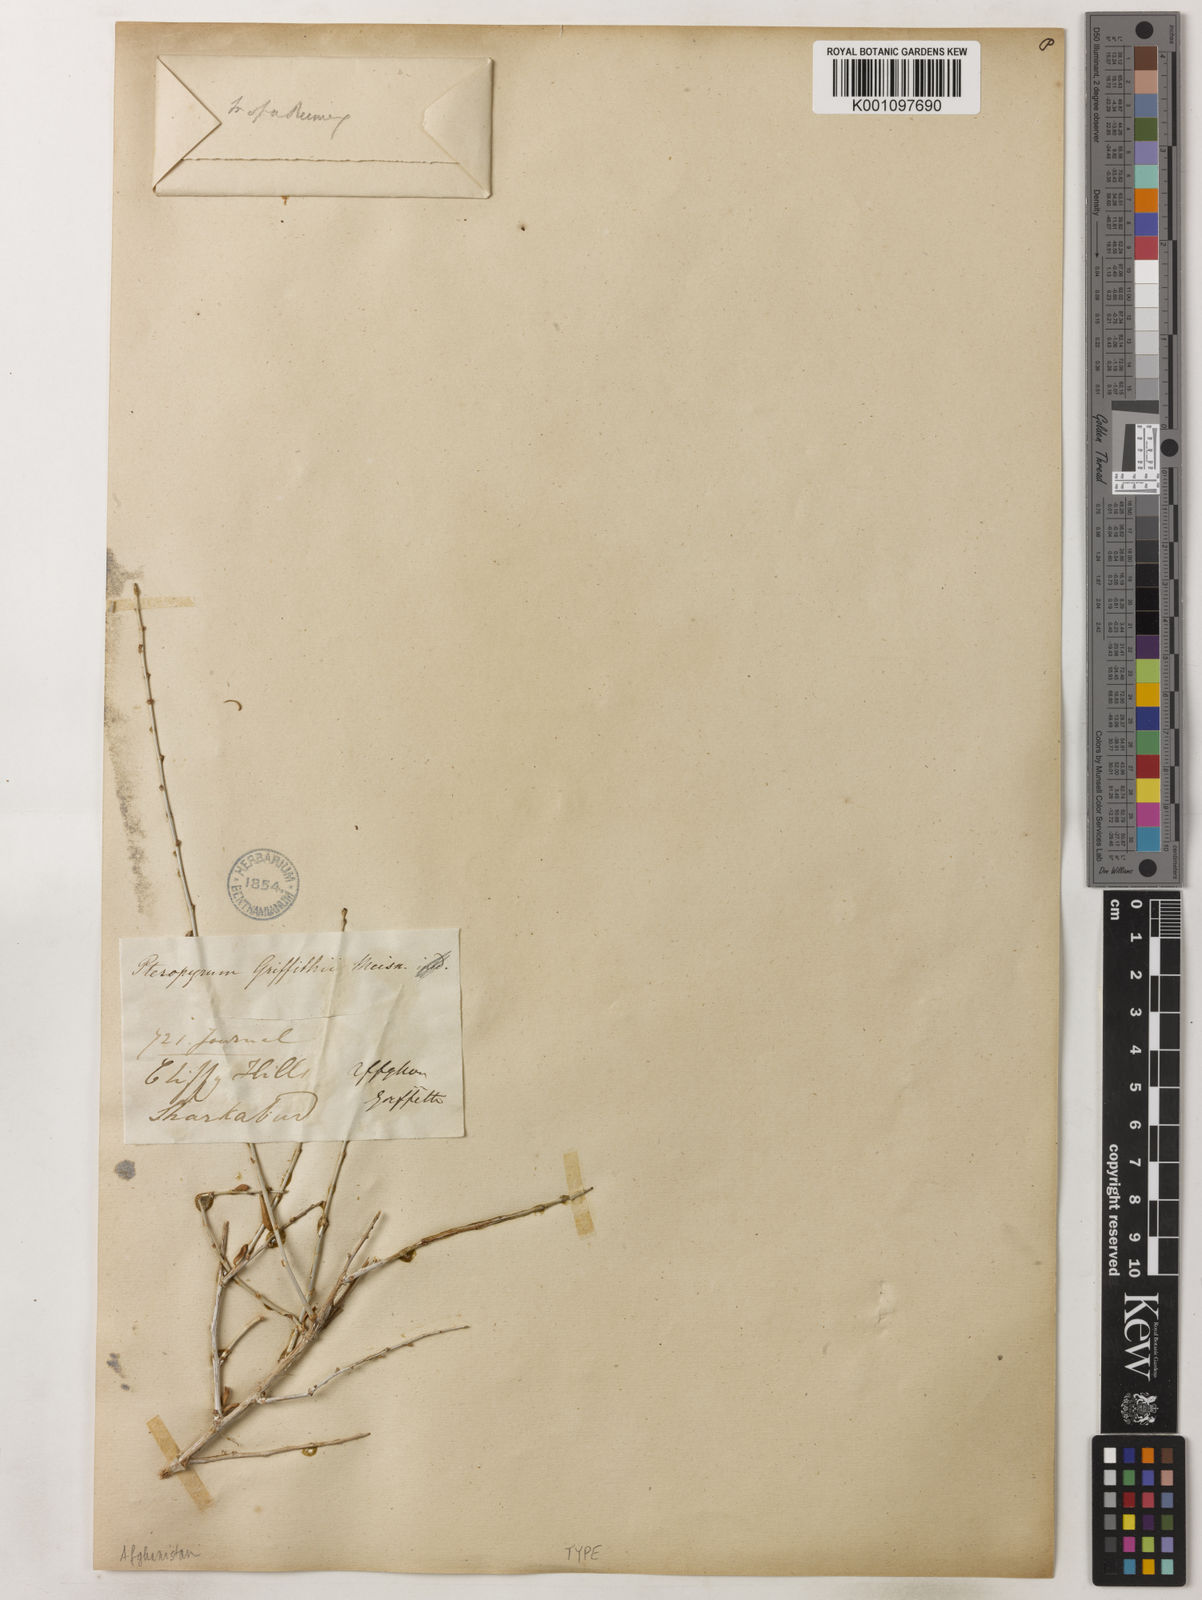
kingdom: Plantae
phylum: Tracheophyta
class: Magnoliopsida
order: Caryophyllales
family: Polygonaceae
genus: Pteropyrum
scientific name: Pteropyrum aucheri
